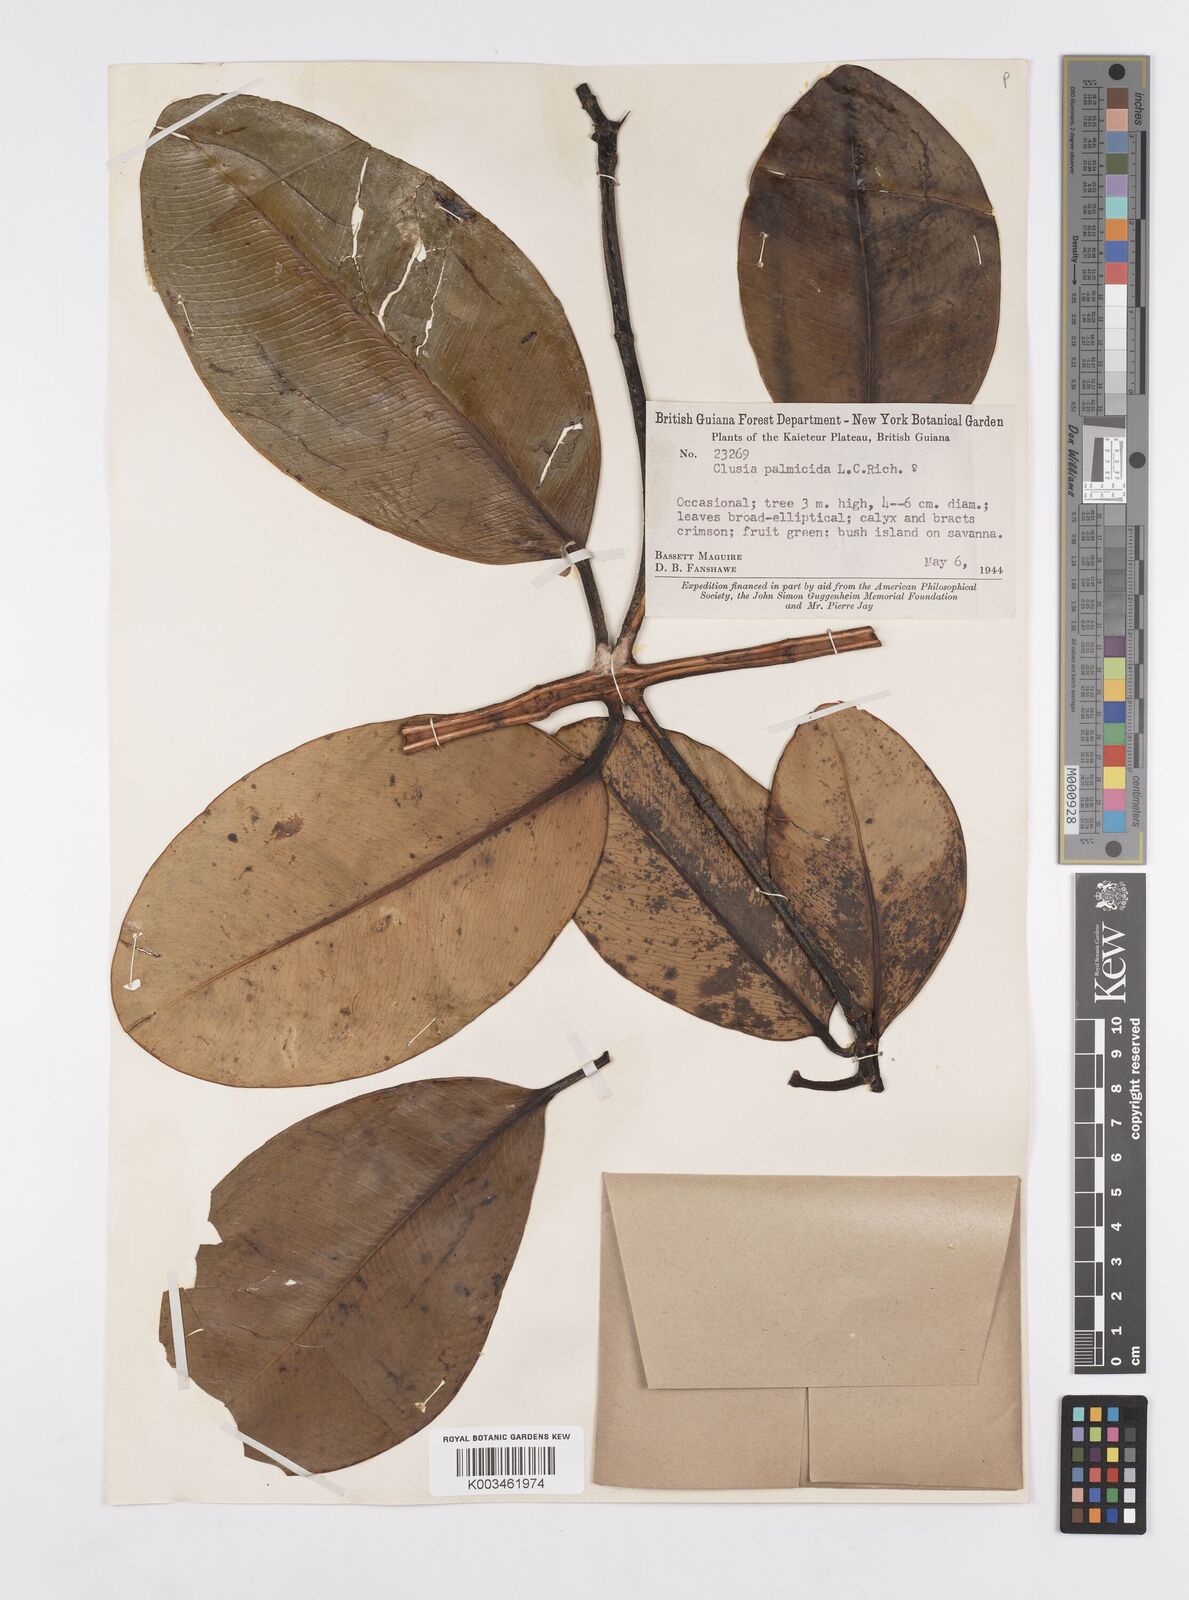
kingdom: Plantae
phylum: Tracheophyta
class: Magnoliopsida
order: Malpighiales
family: Clusiaceae
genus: Clusia
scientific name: Clusia palmicida
